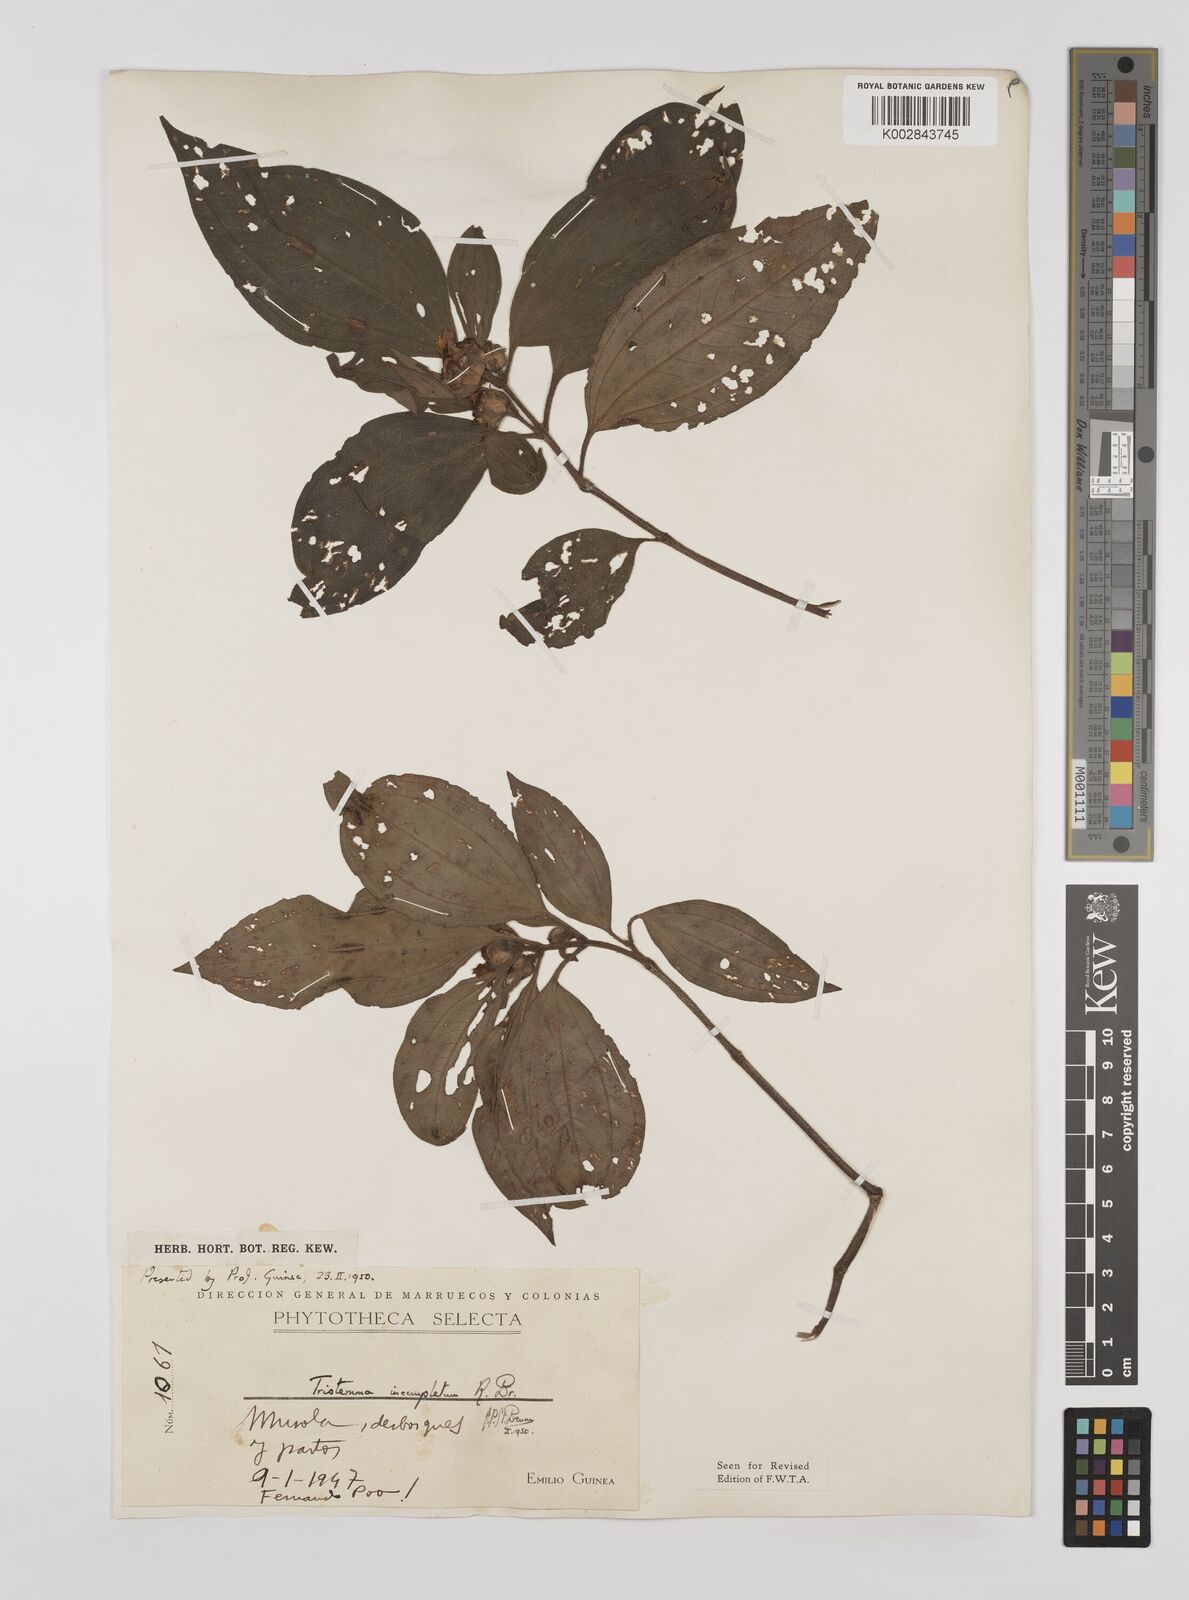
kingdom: Plantae
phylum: Tracheophyta
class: Magnoliopsida
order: Myrtales
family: Melastomataceae
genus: Tristemma
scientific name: Tristemma mauritianum
